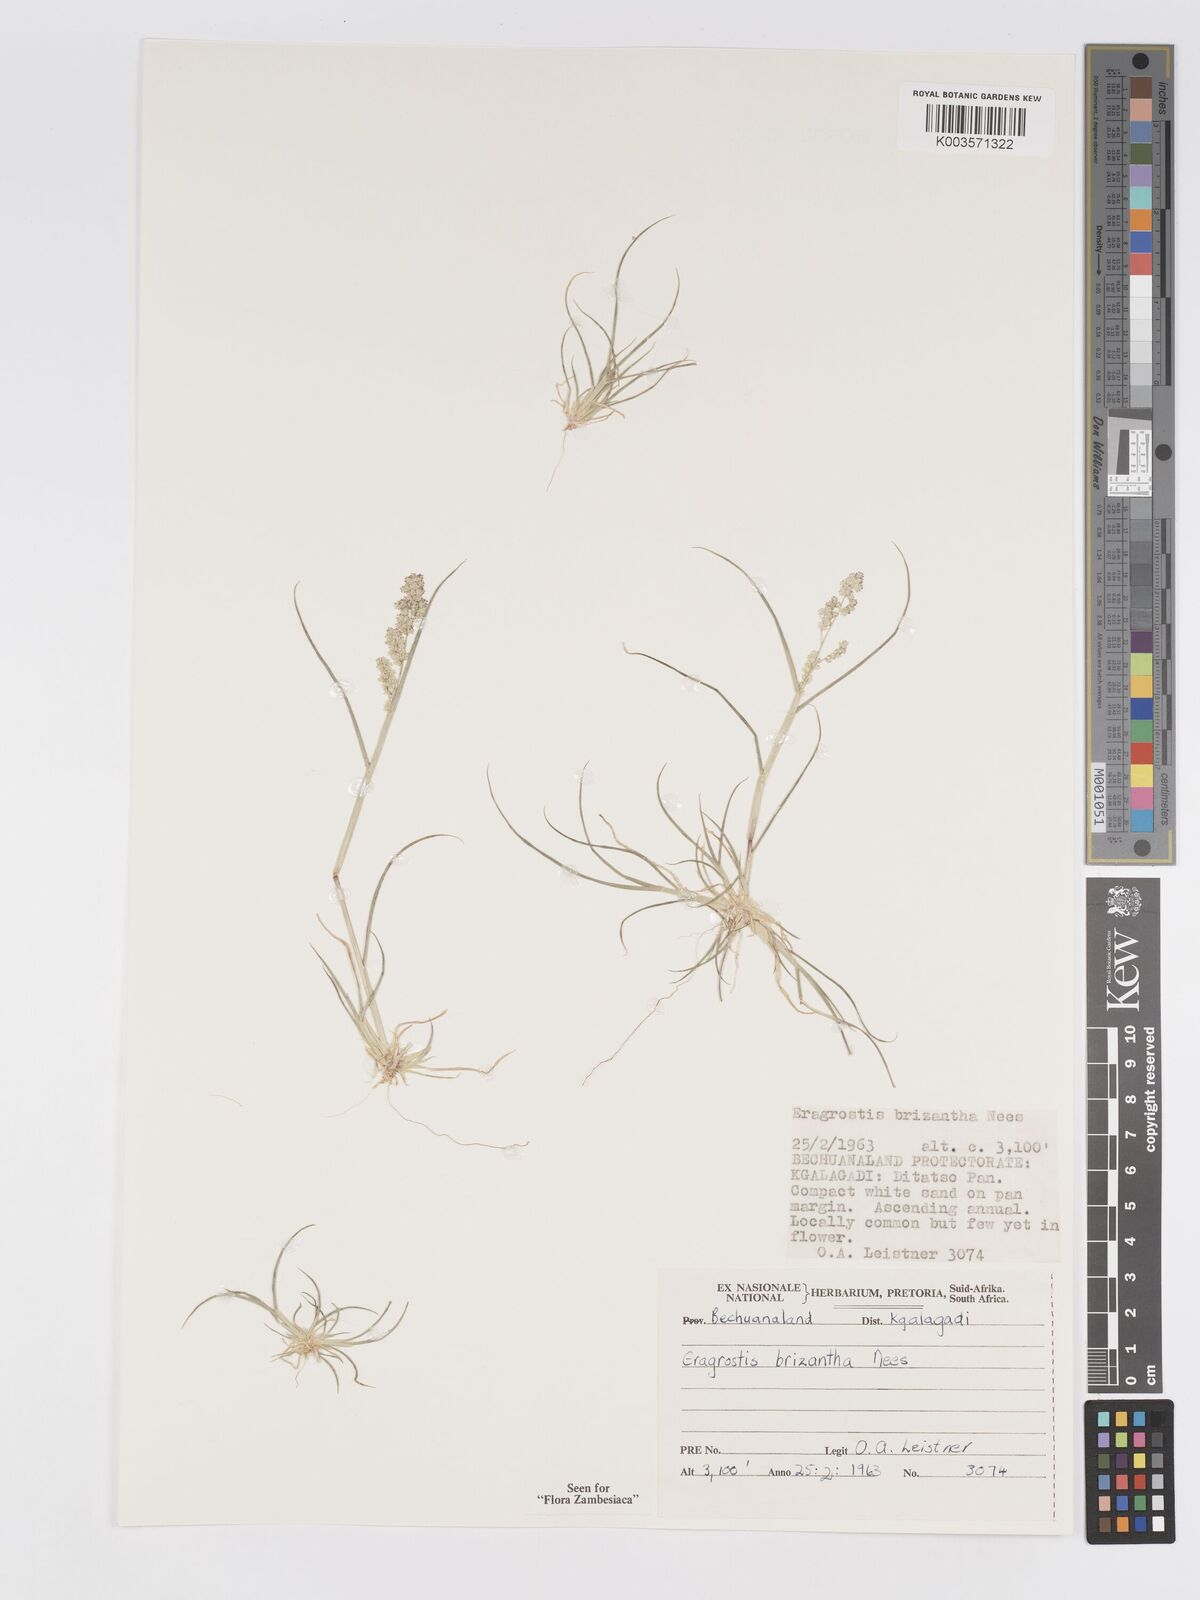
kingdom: Plantae
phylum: Tracheophyta
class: Liliopsida
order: Poales
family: Poaceae
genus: Eragrostis
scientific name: Eragrostis brizantha
